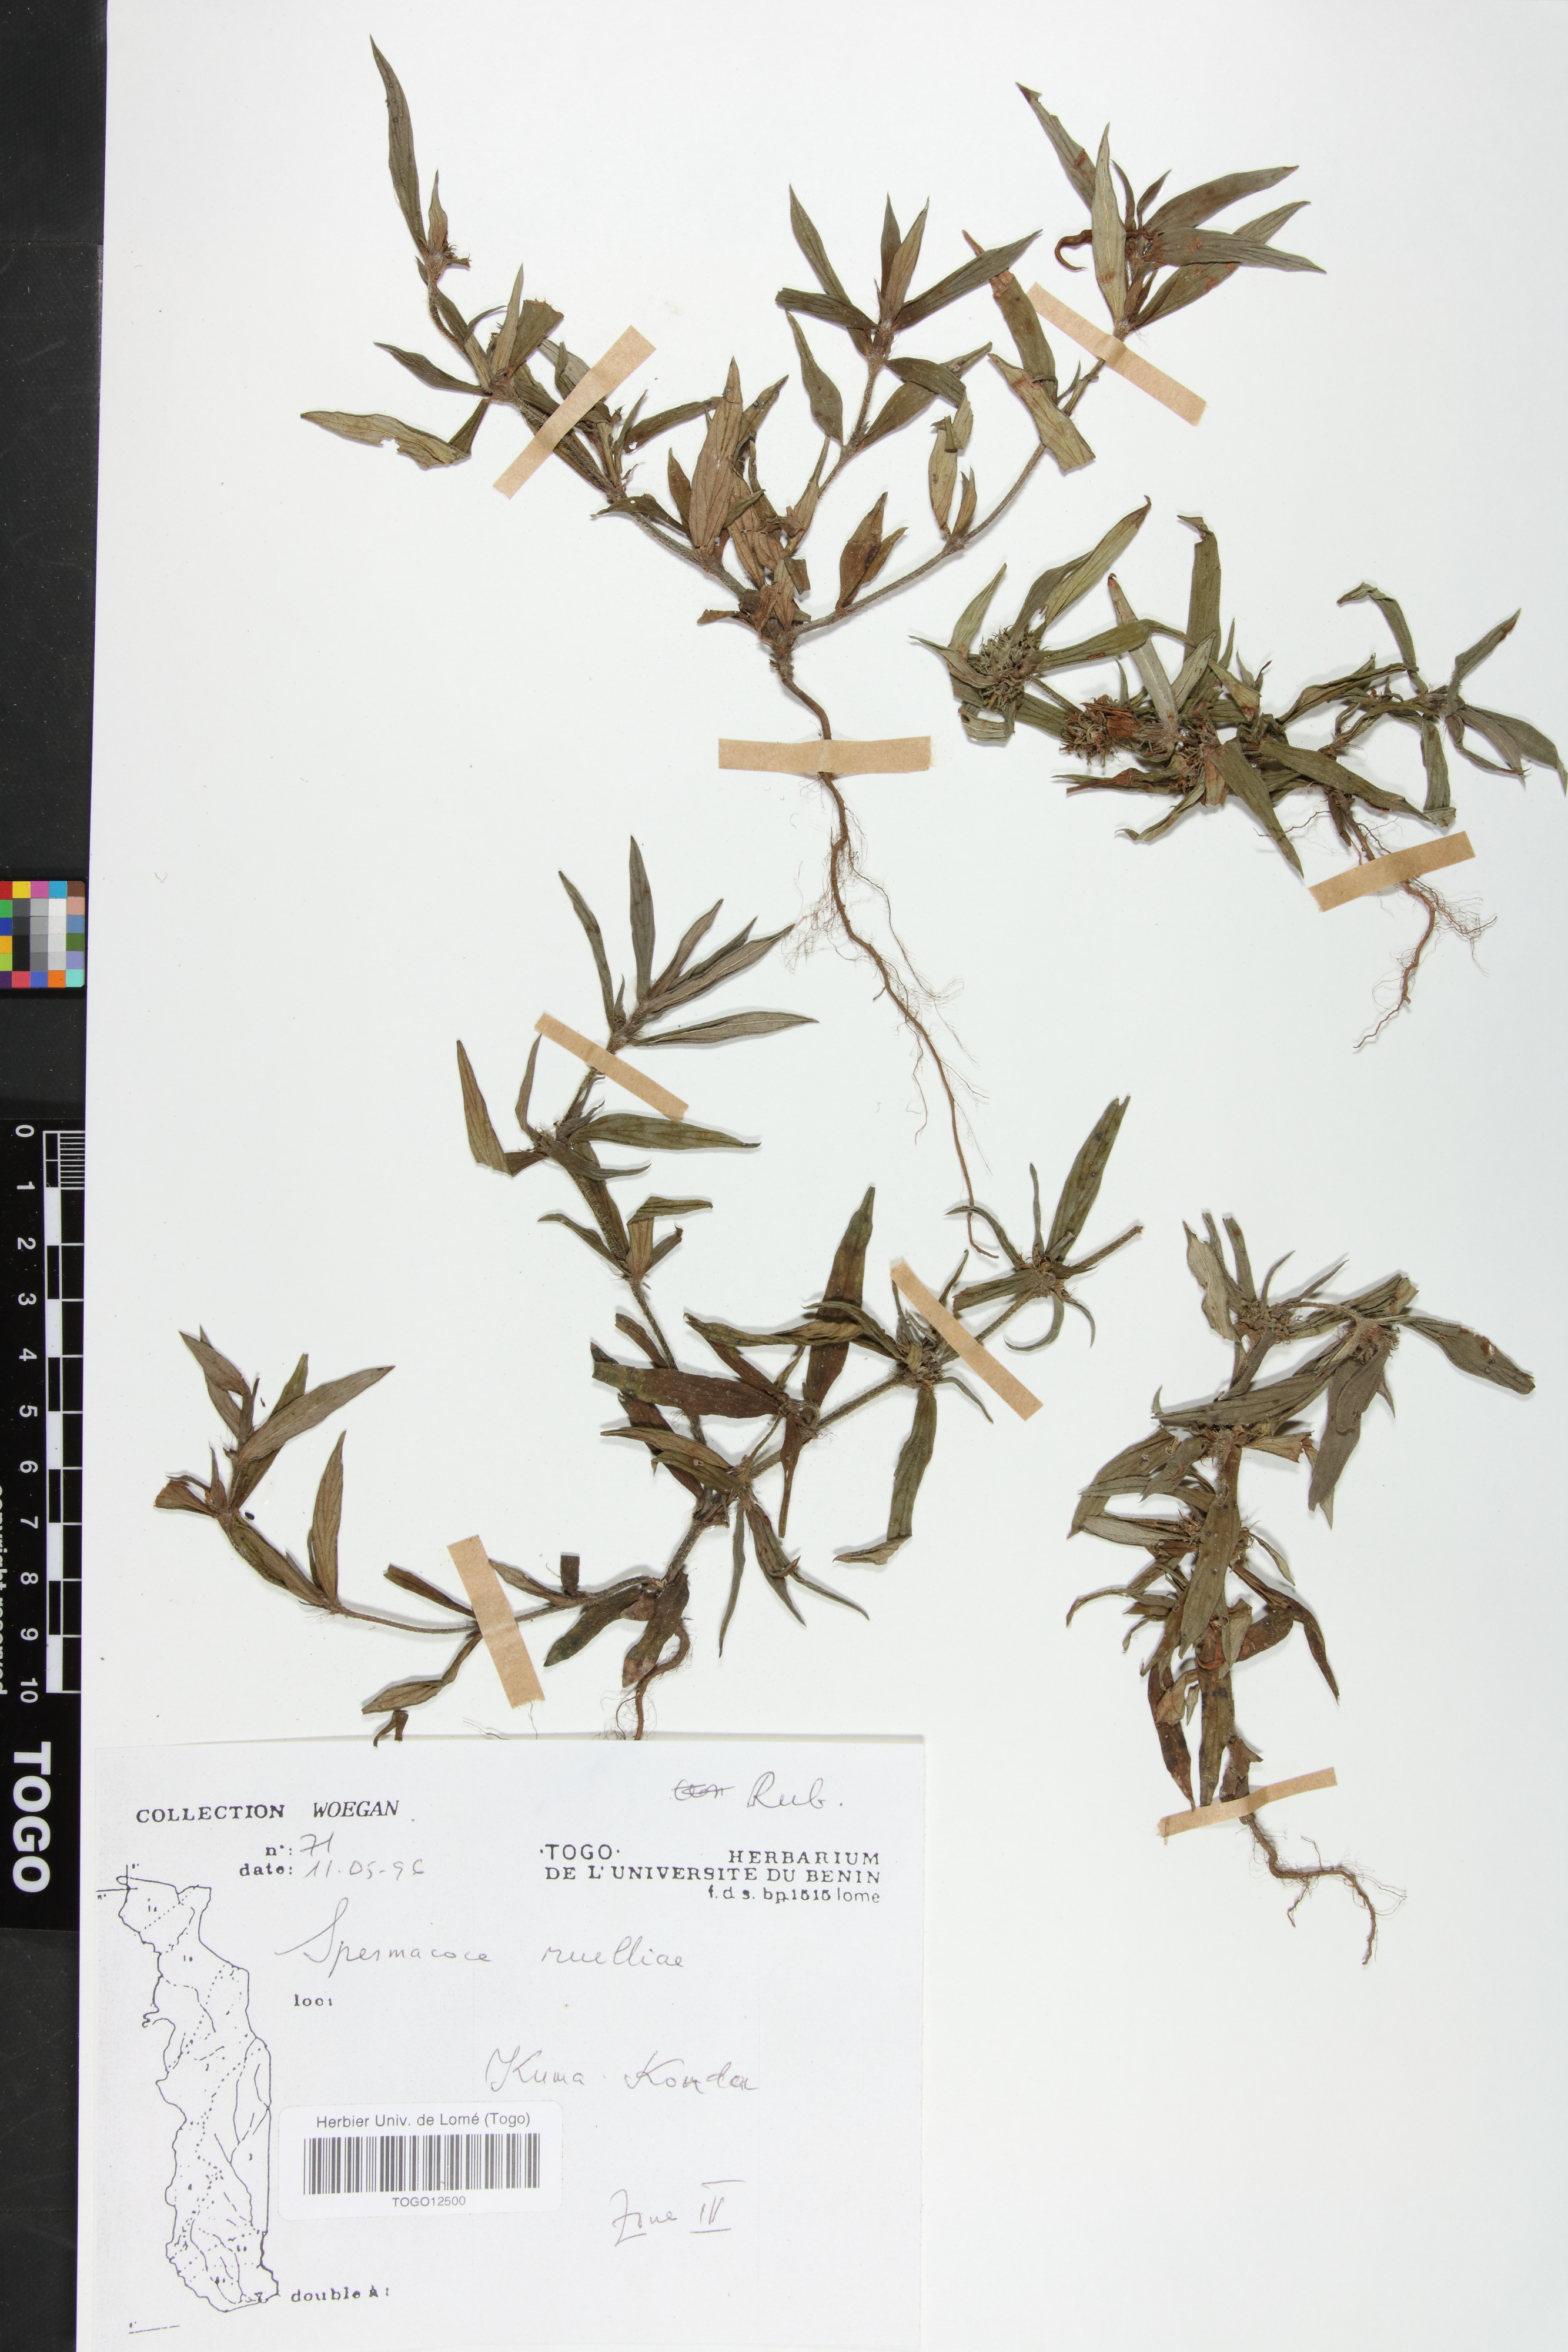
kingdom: Plantae
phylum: Tracheophyta
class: Magnoliopsida
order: Gentianales
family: Rubiaceae
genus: Spermacoce
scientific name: Spermacoce ruelliae
